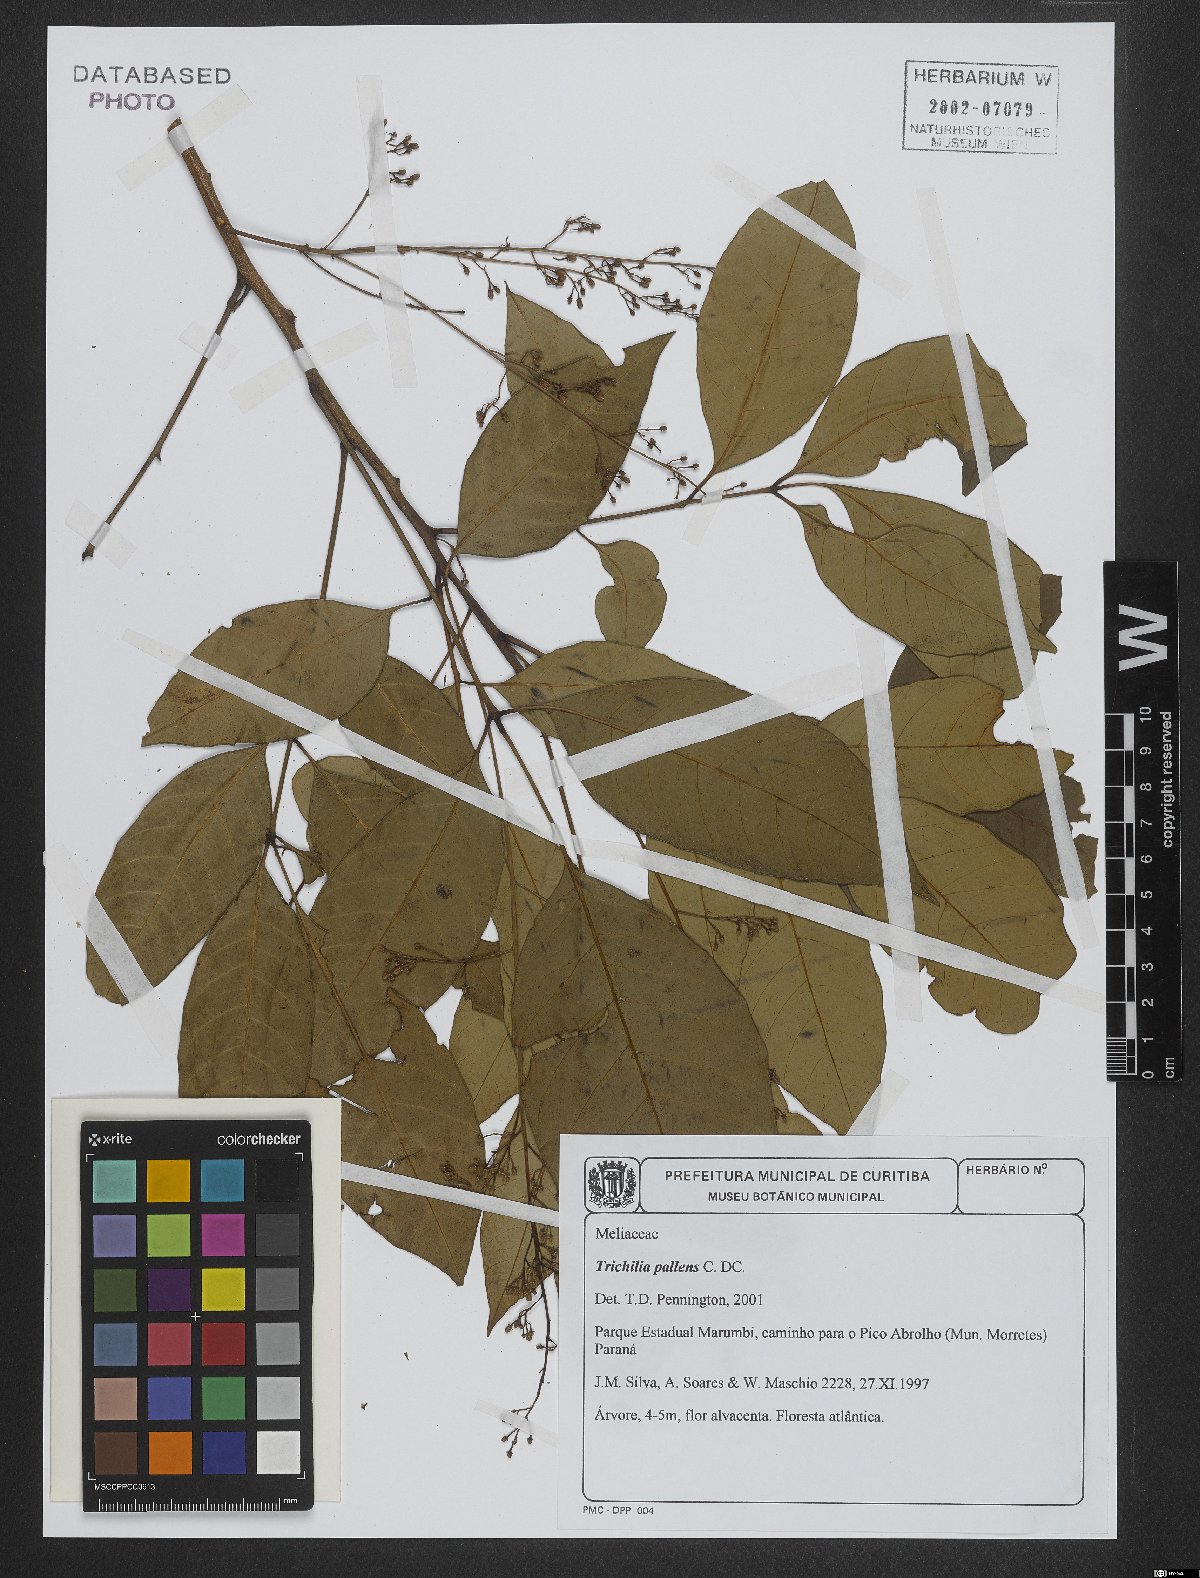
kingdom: Plantae
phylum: Tracheophyta
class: Magnoliopsida
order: Sapindales
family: Meliaceae
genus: Trichilia
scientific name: Trichilia pallens
